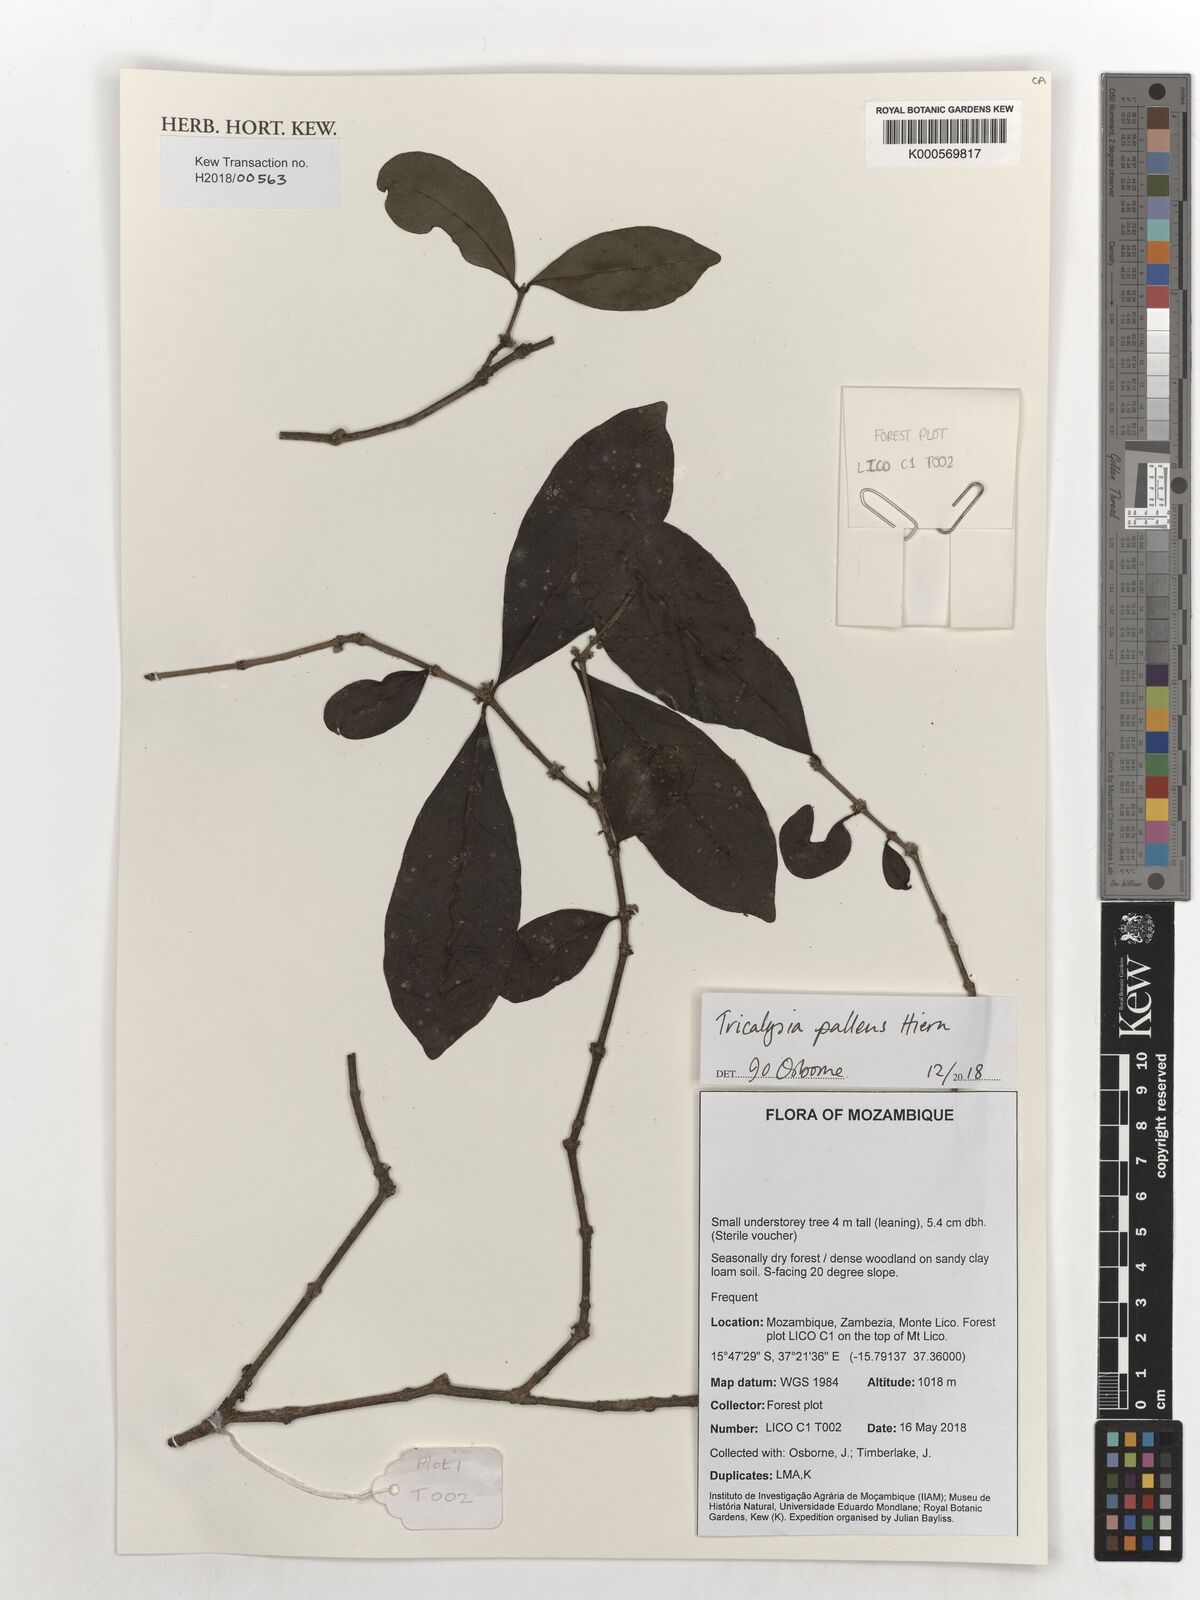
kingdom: Plantae
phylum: Tracheophyta
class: Magnoliopsida
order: Gentianales
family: Rubiaceae
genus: Tricalysia
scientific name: Tricalysia pallens
